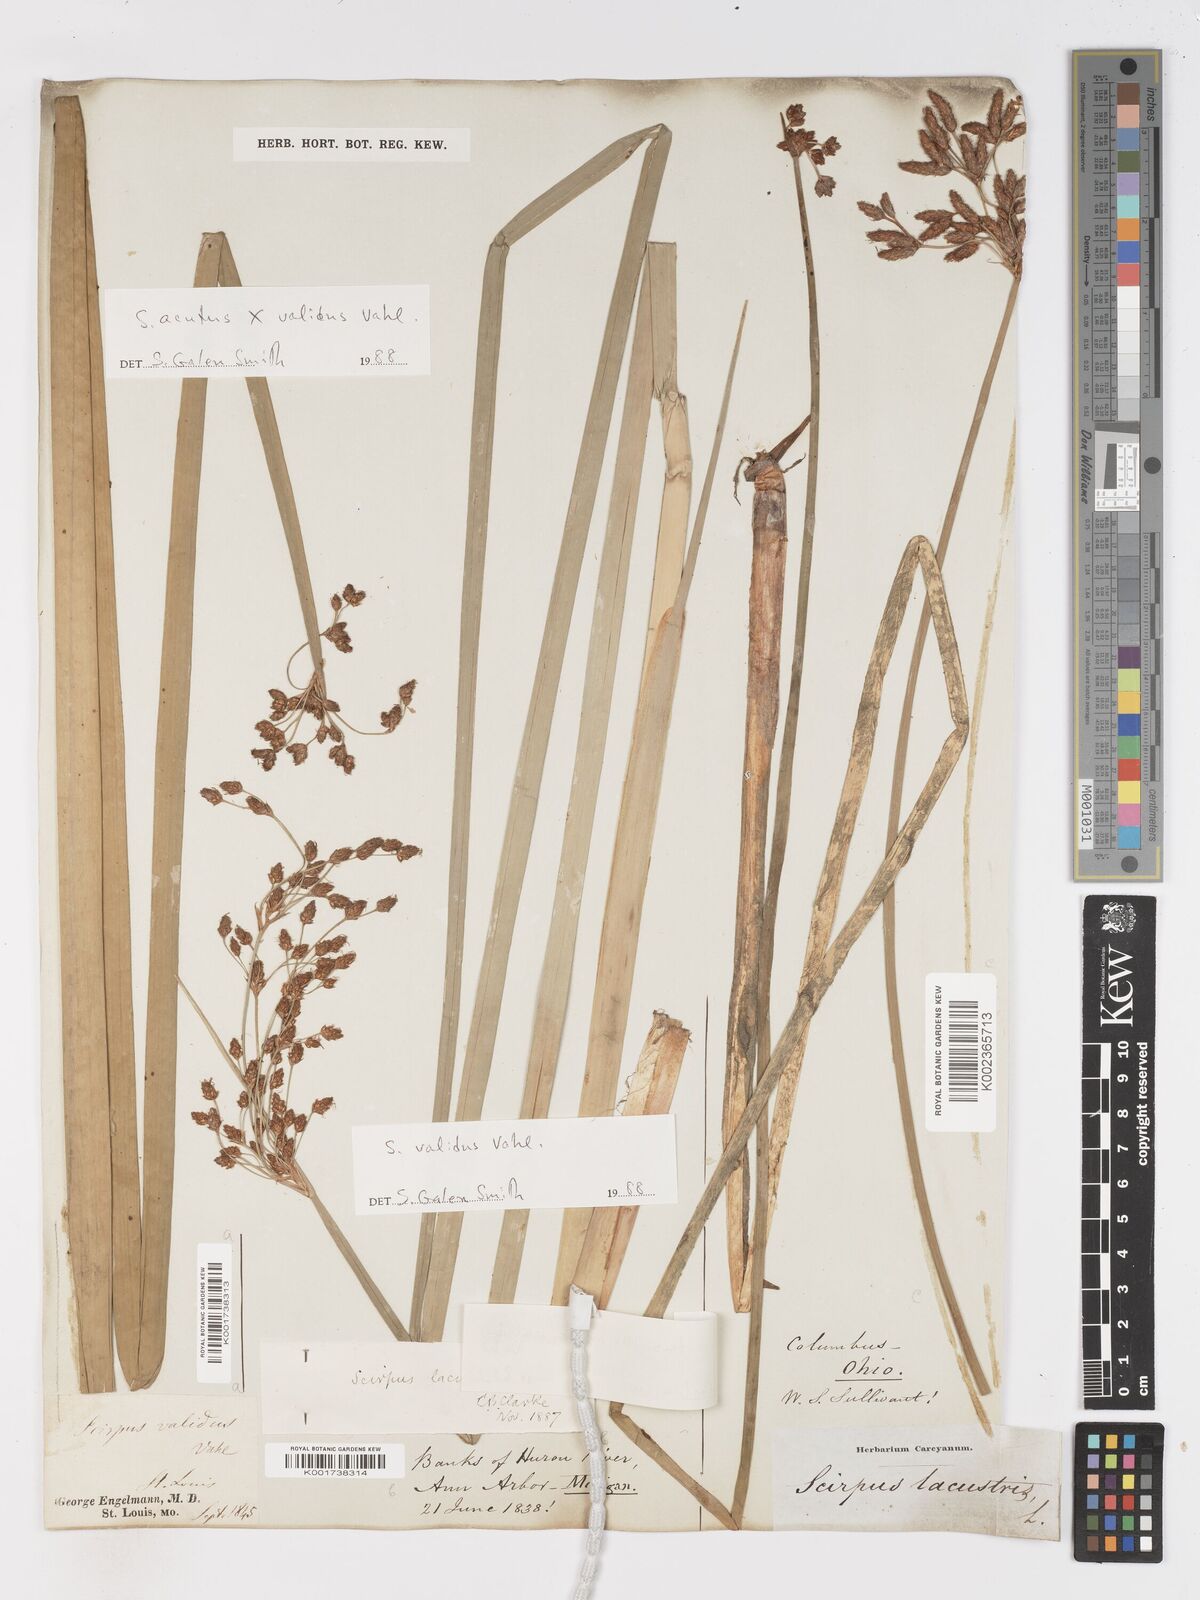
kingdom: Plantae
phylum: Tracheophyta
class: Liliopsida
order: Poales
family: Cyperaceae
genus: Schoenoplectus
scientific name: Schoenoplectus acutus
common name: Hardstem bulrush
